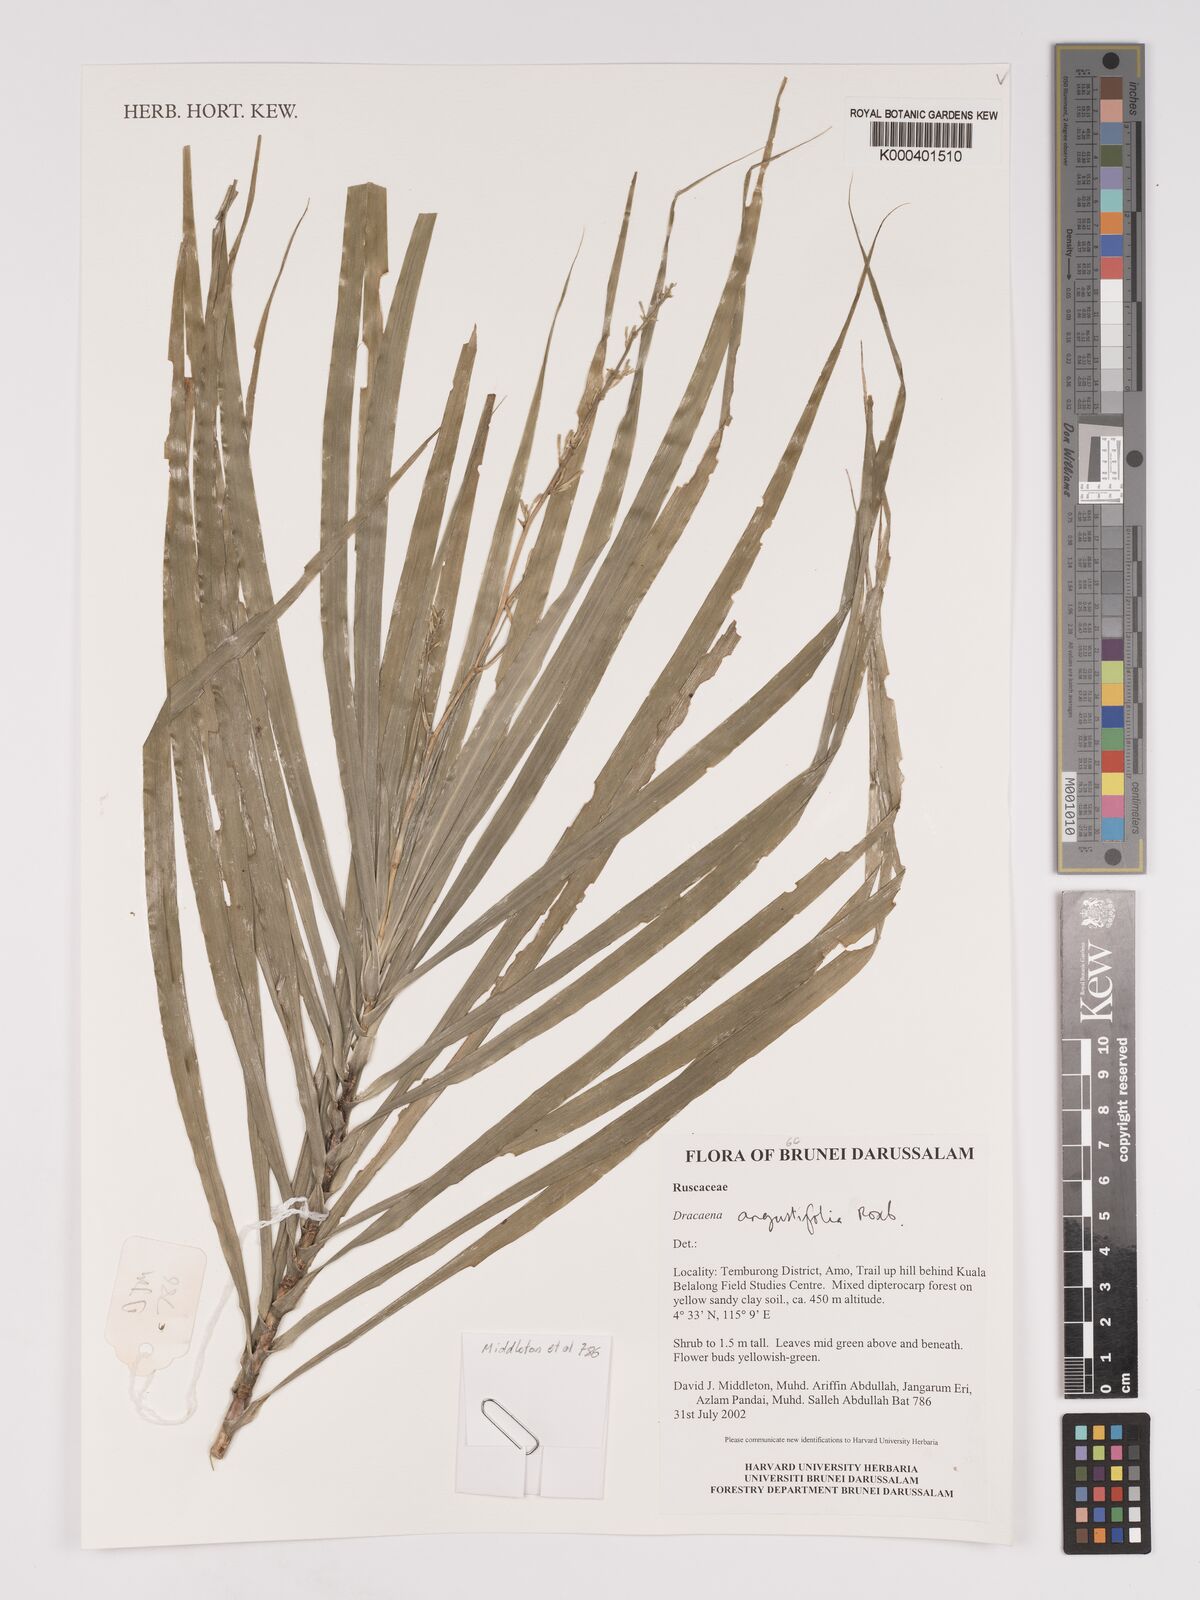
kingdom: Plantae
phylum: Tracheophyta
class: Liliopsida
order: Asparagales
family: Asparagaceae
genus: Dracaena
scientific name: Dracaena angustifolia
